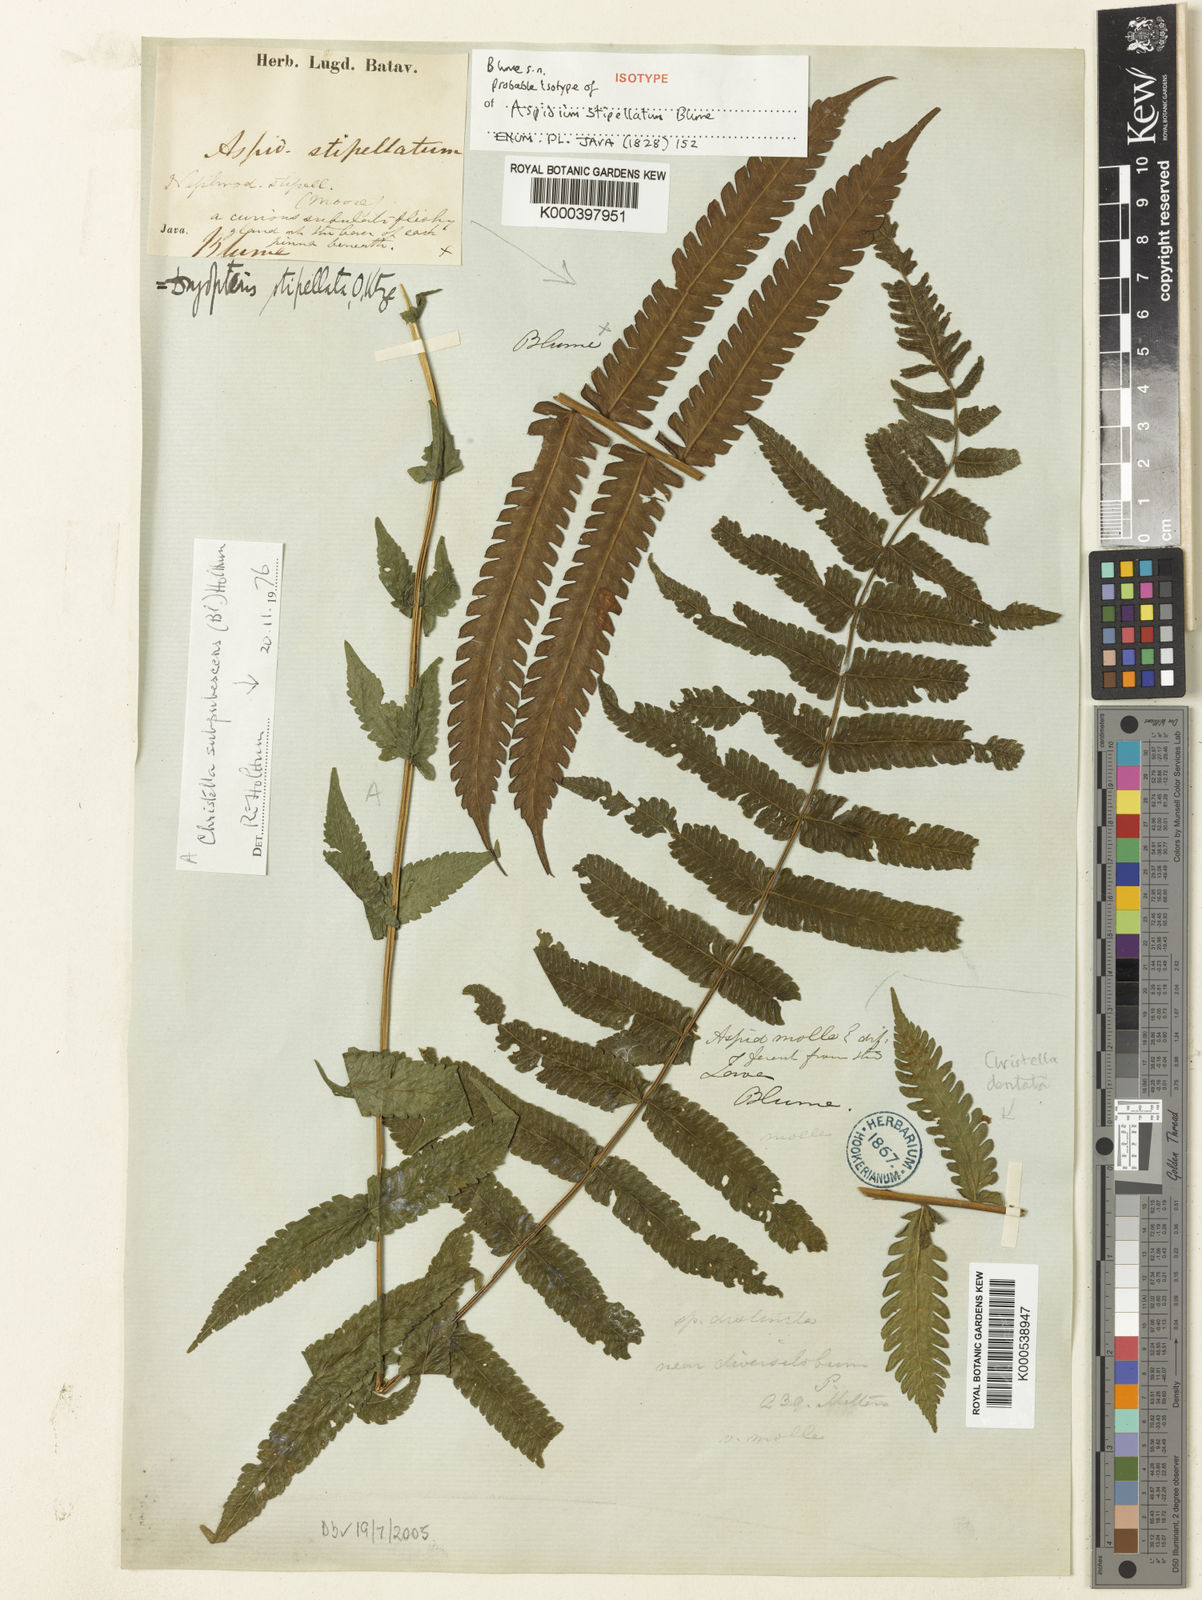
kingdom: Plantae
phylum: Tracheophyta
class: Polypodiopsida
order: Polypodiales
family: Thelypteridaceae
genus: Sphaerostephanos
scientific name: Sphaerostephanos stipellatus
